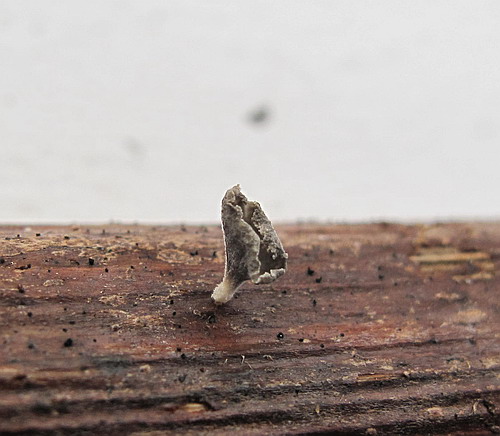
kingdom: Fungi
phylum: Basidiomycota
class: Agaricomycetes
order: Agaricales
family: Marasmiaceae
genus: Calyptella
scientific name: Calyptella gibbosa
